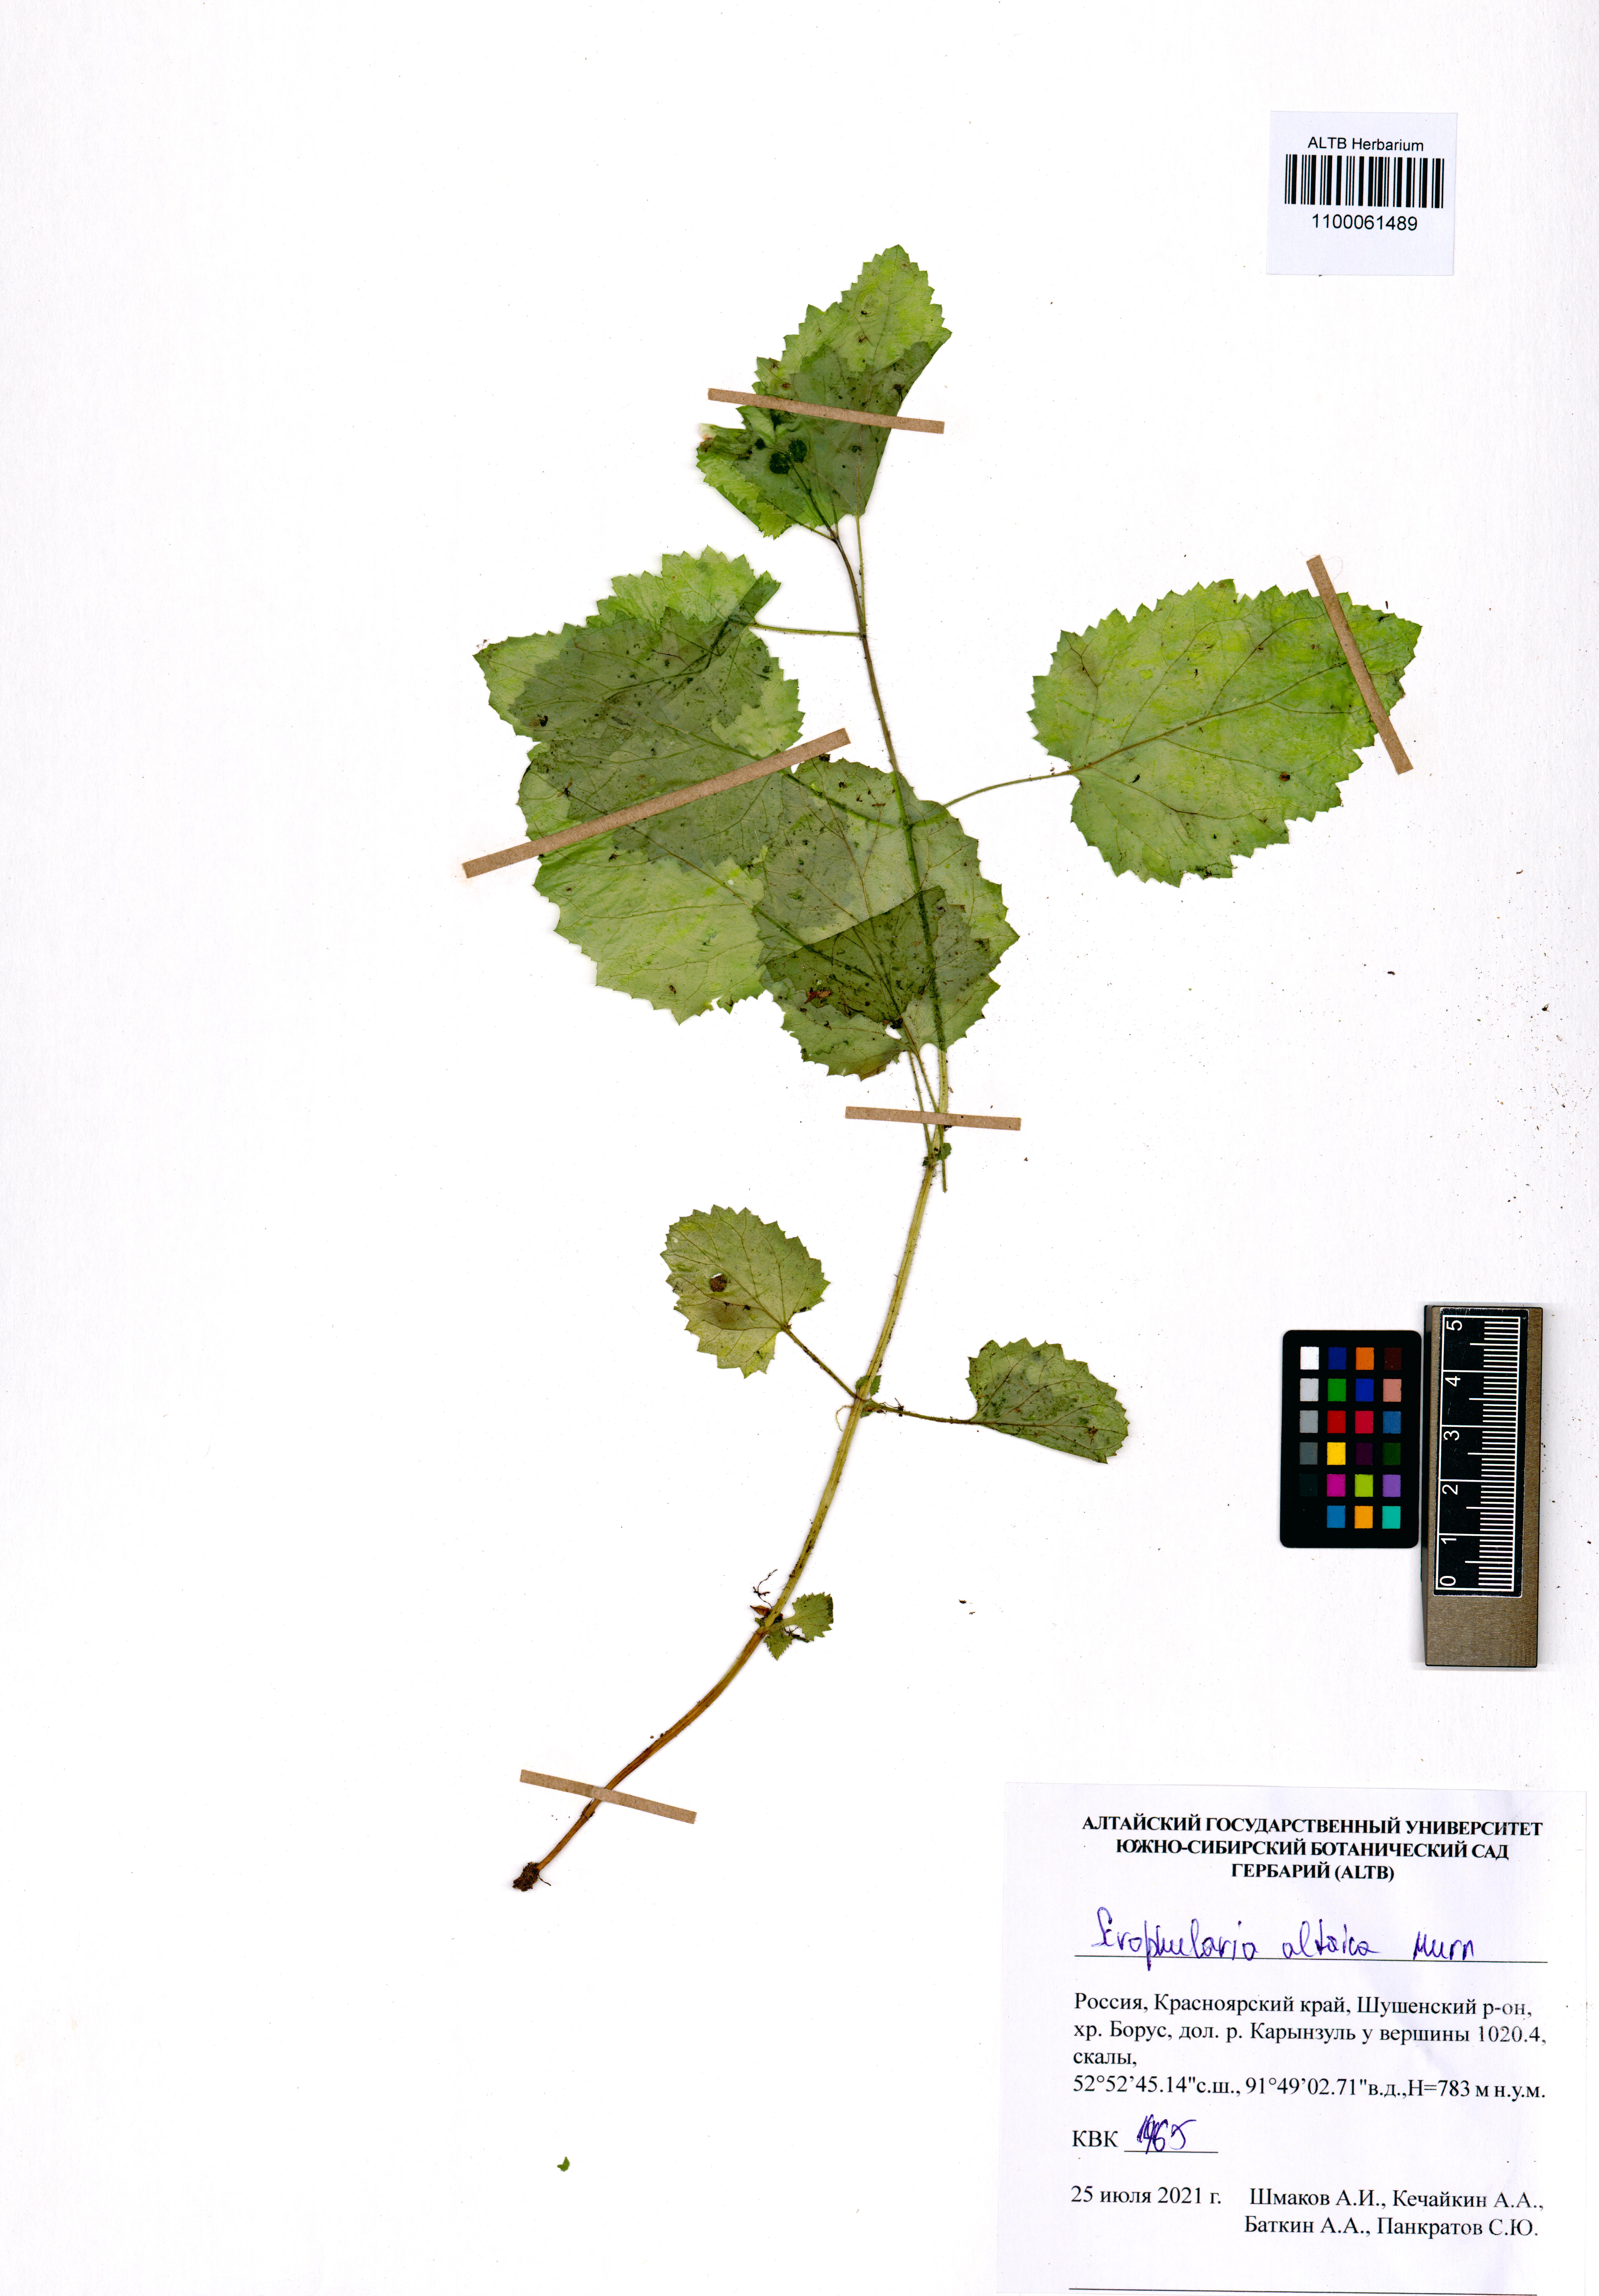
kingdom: Plantae
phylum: Tracheophyta
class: Magnoliopsida
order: Lamiales
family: Scrophulariaceae
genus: Scrophularia
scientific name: Scrophularia altaica
